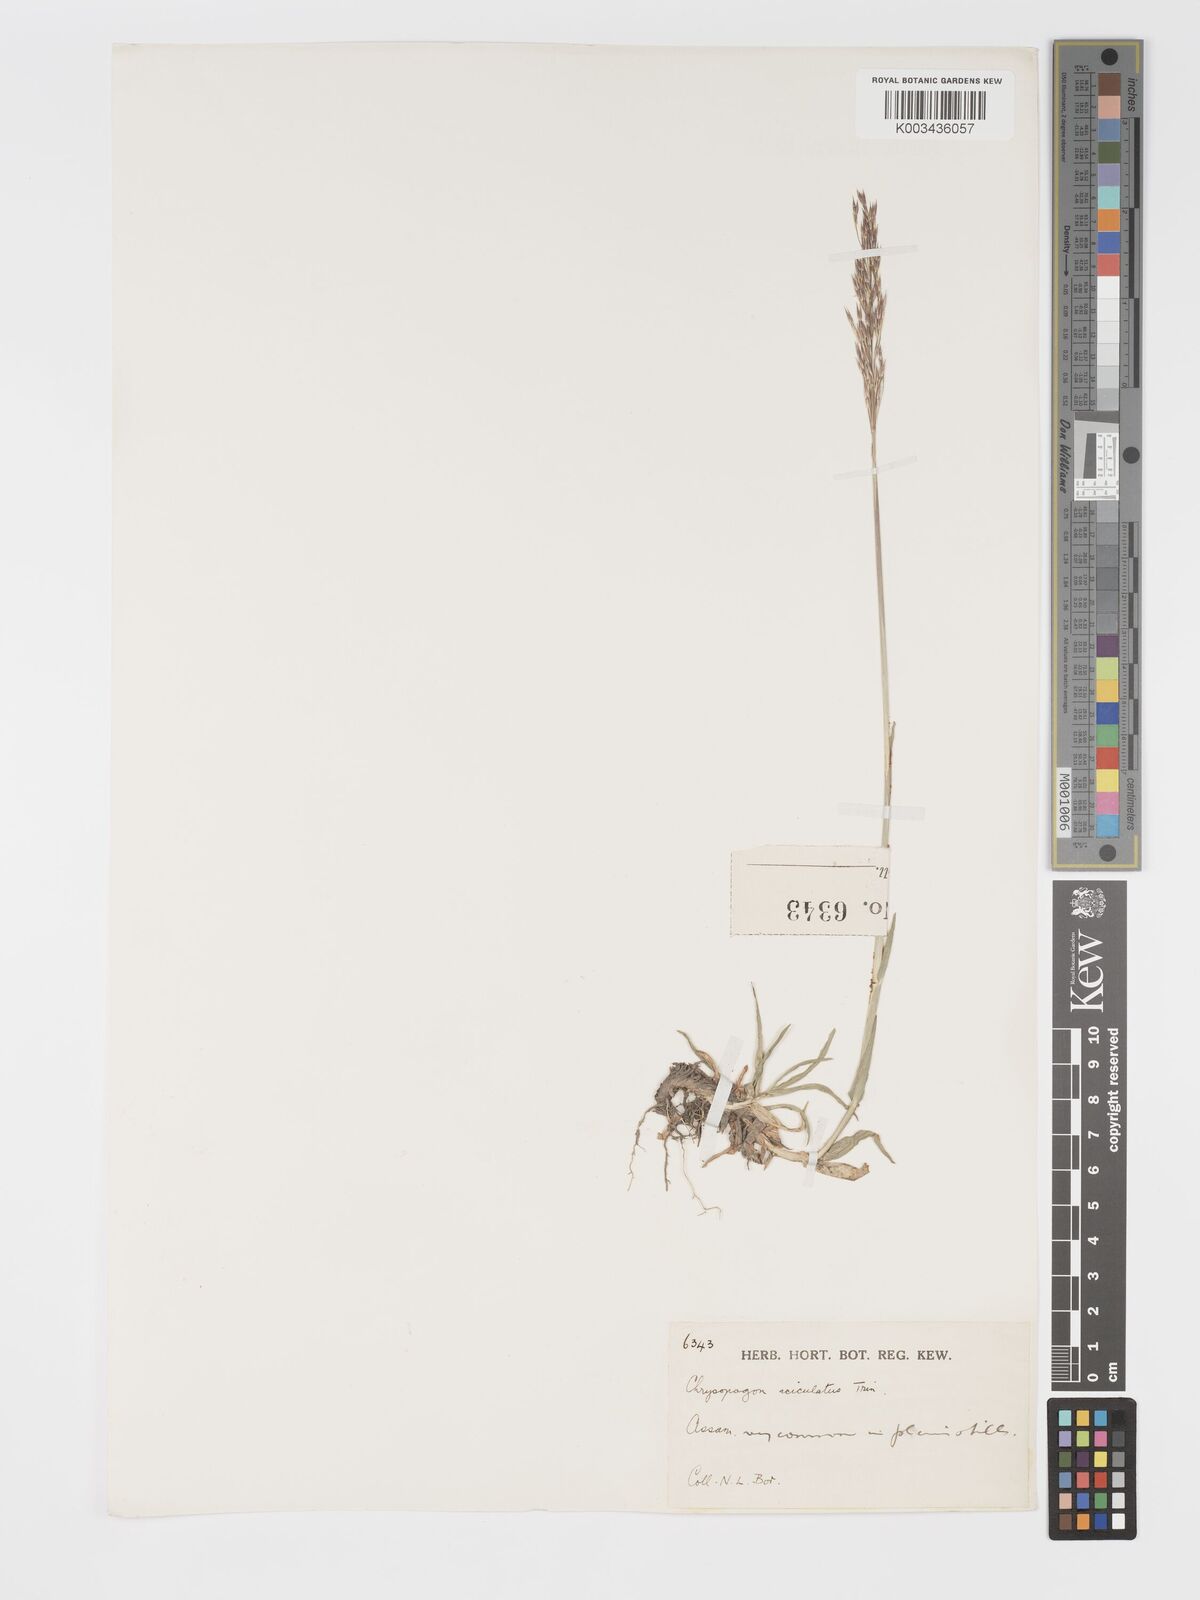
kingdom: Plantae
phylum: Tracheophyta
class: Liliopsida
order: Poales
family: Poaceae
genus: Chrysopogon
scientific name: Chrysopogon aciculatus
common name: Pilipiliula
